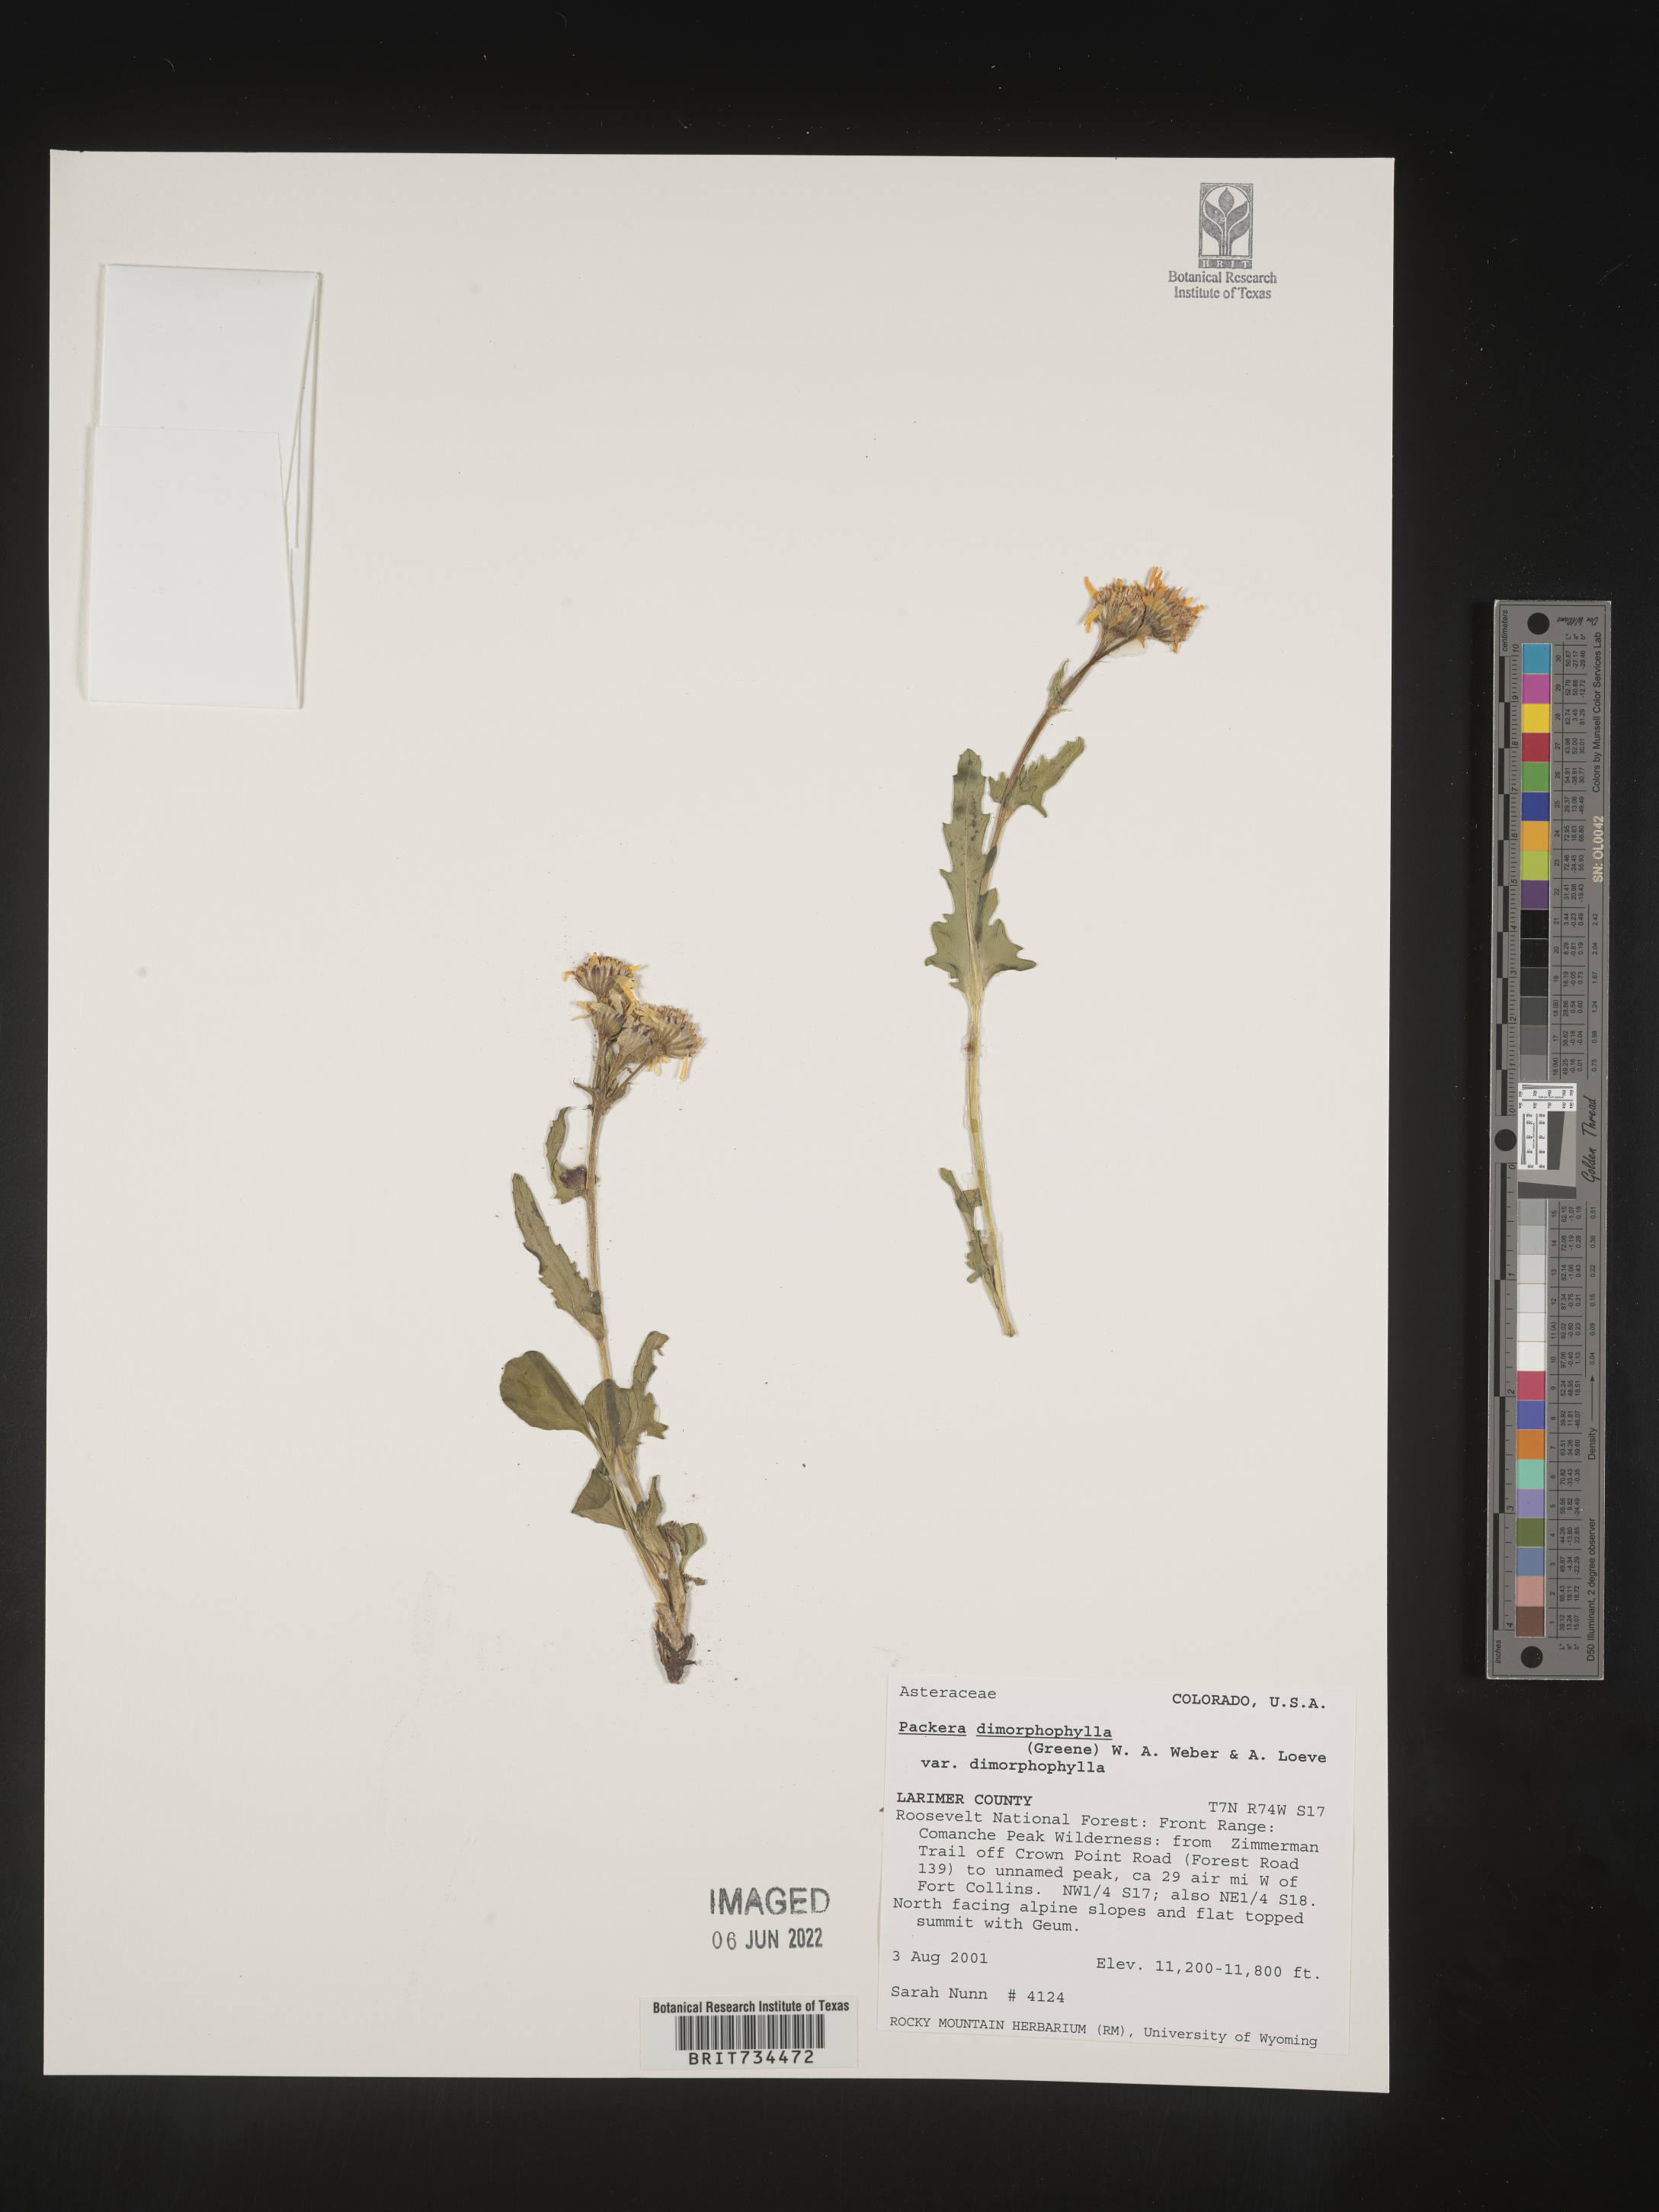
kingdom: Plantae
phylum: Tracheophyta
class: Magnoliopsida
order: Asterales
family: Asteraceae
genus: Packera
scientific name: Packera dimorphophylla
